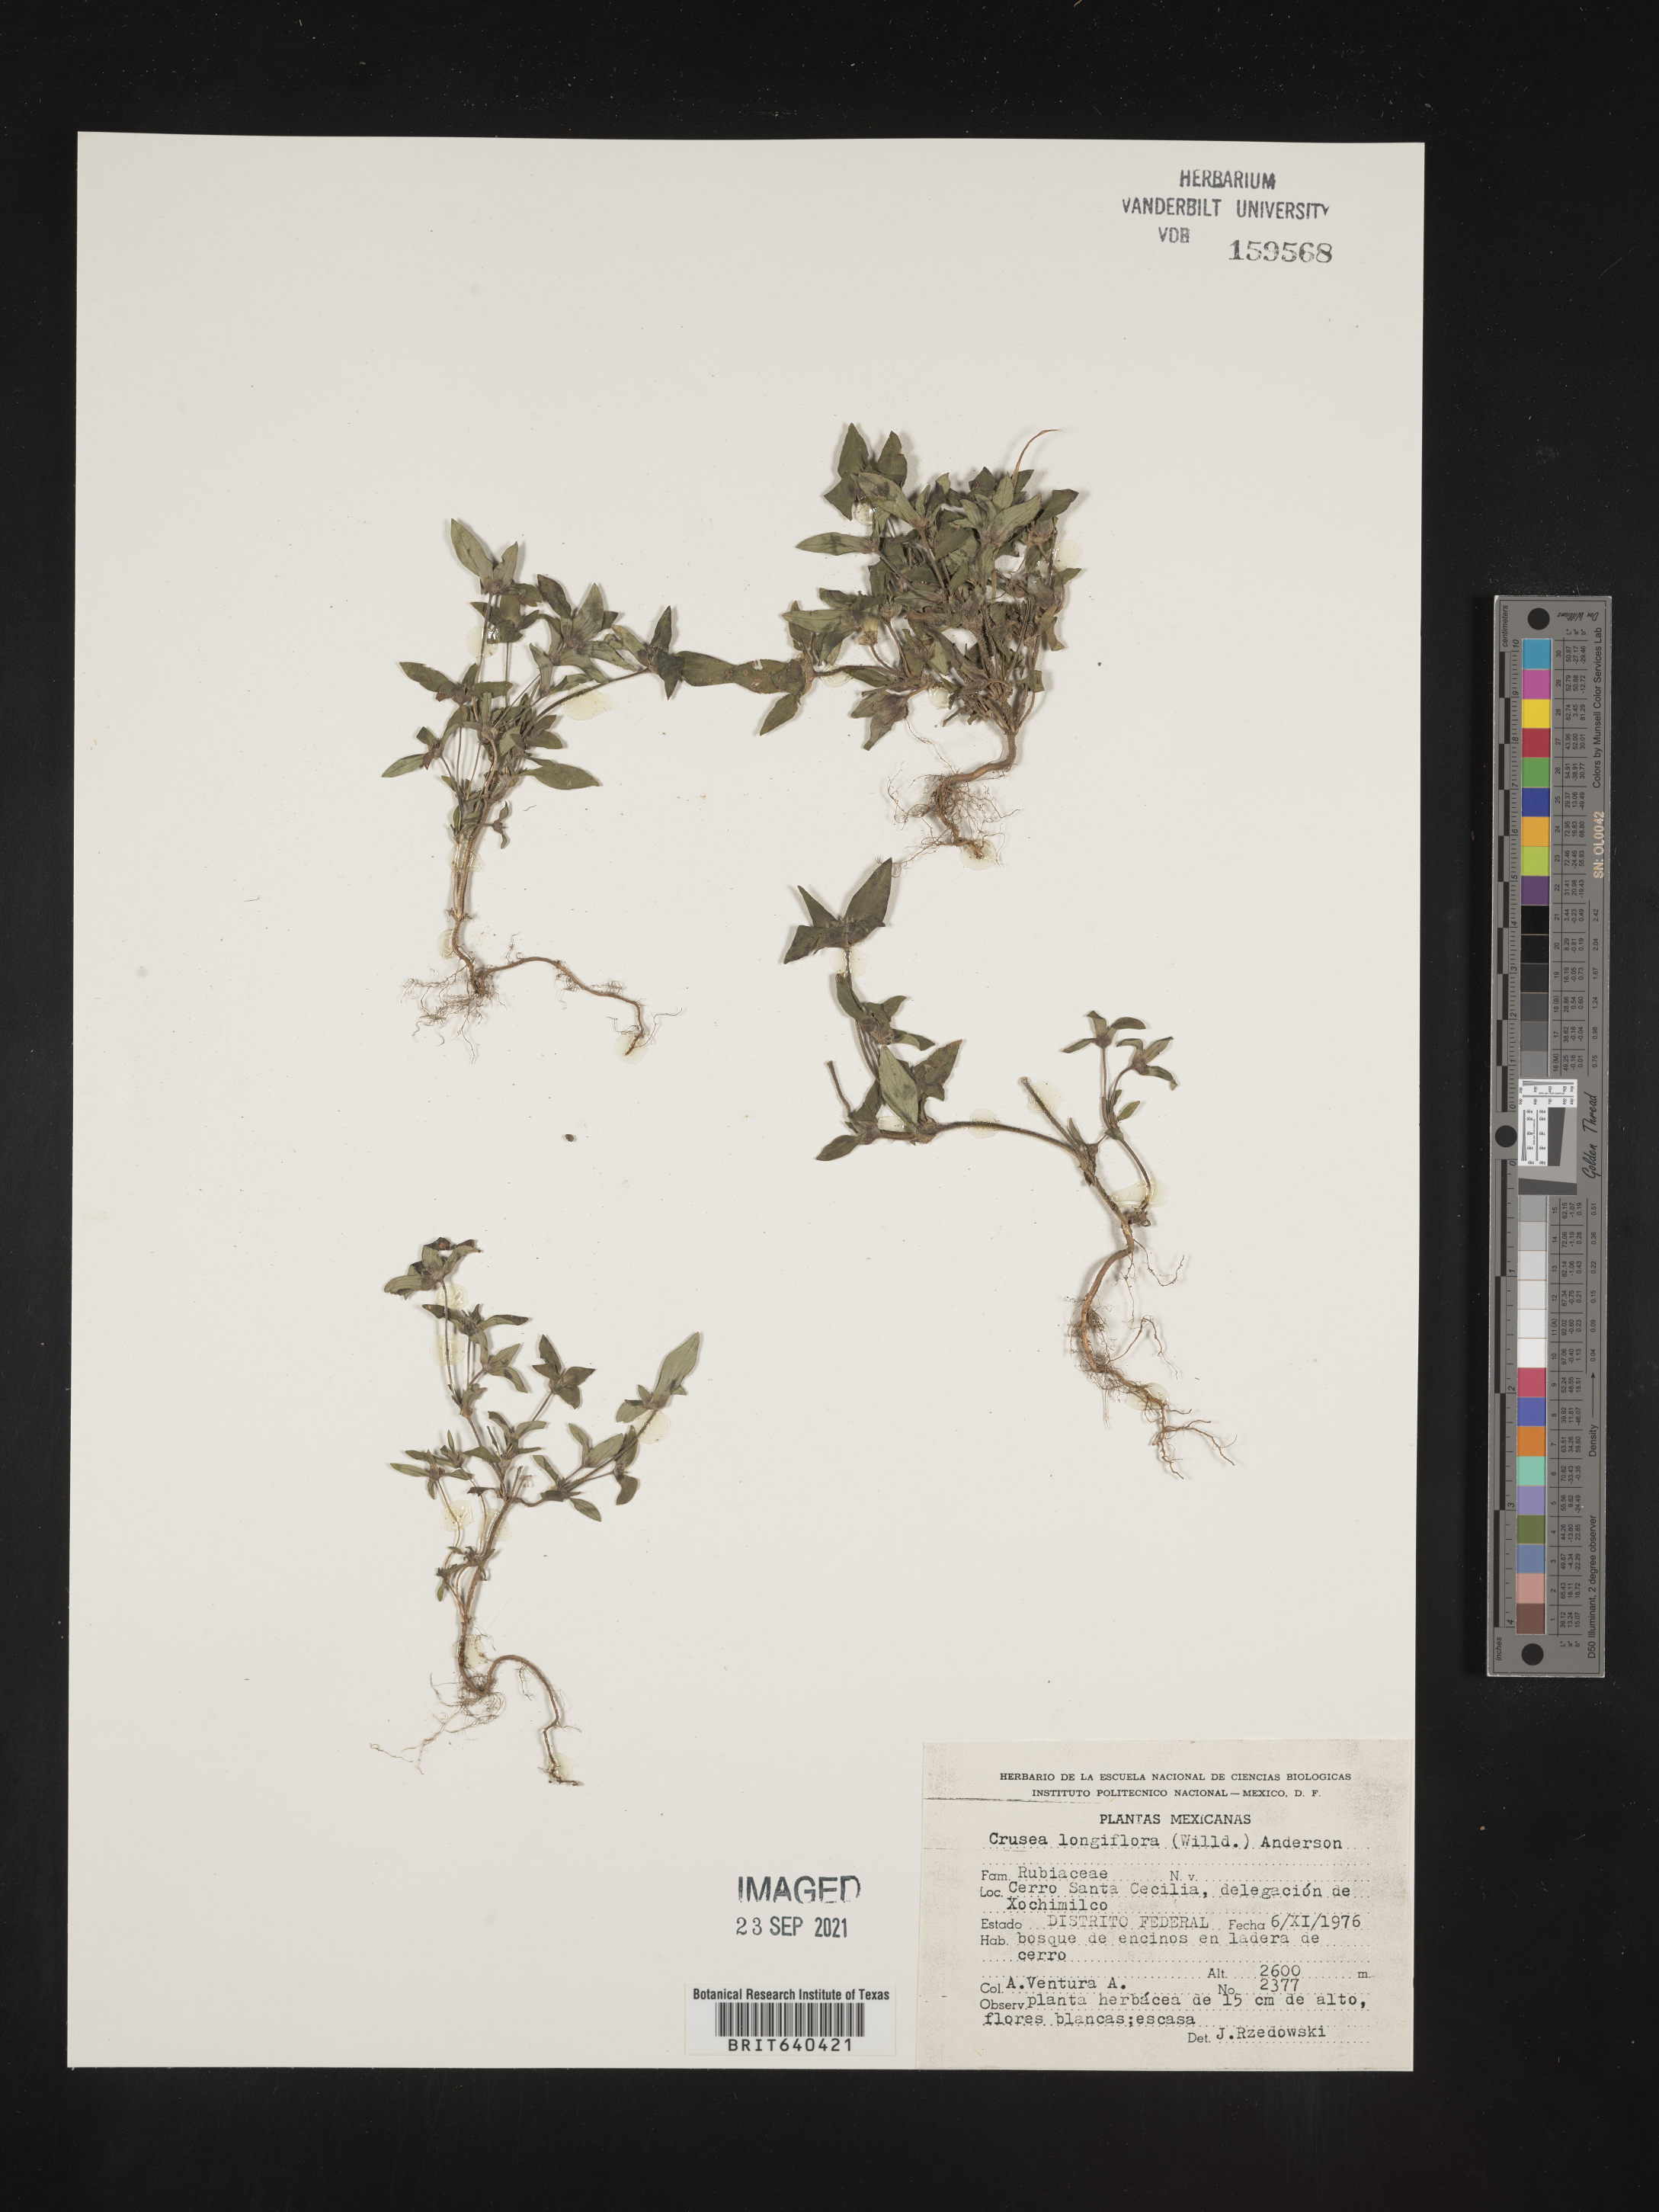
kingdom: Plantae
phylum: Tracheophyta
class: Magnoliopsida
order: Gentianales
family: Rubiaceae
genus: Crusea
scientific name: Crusea
